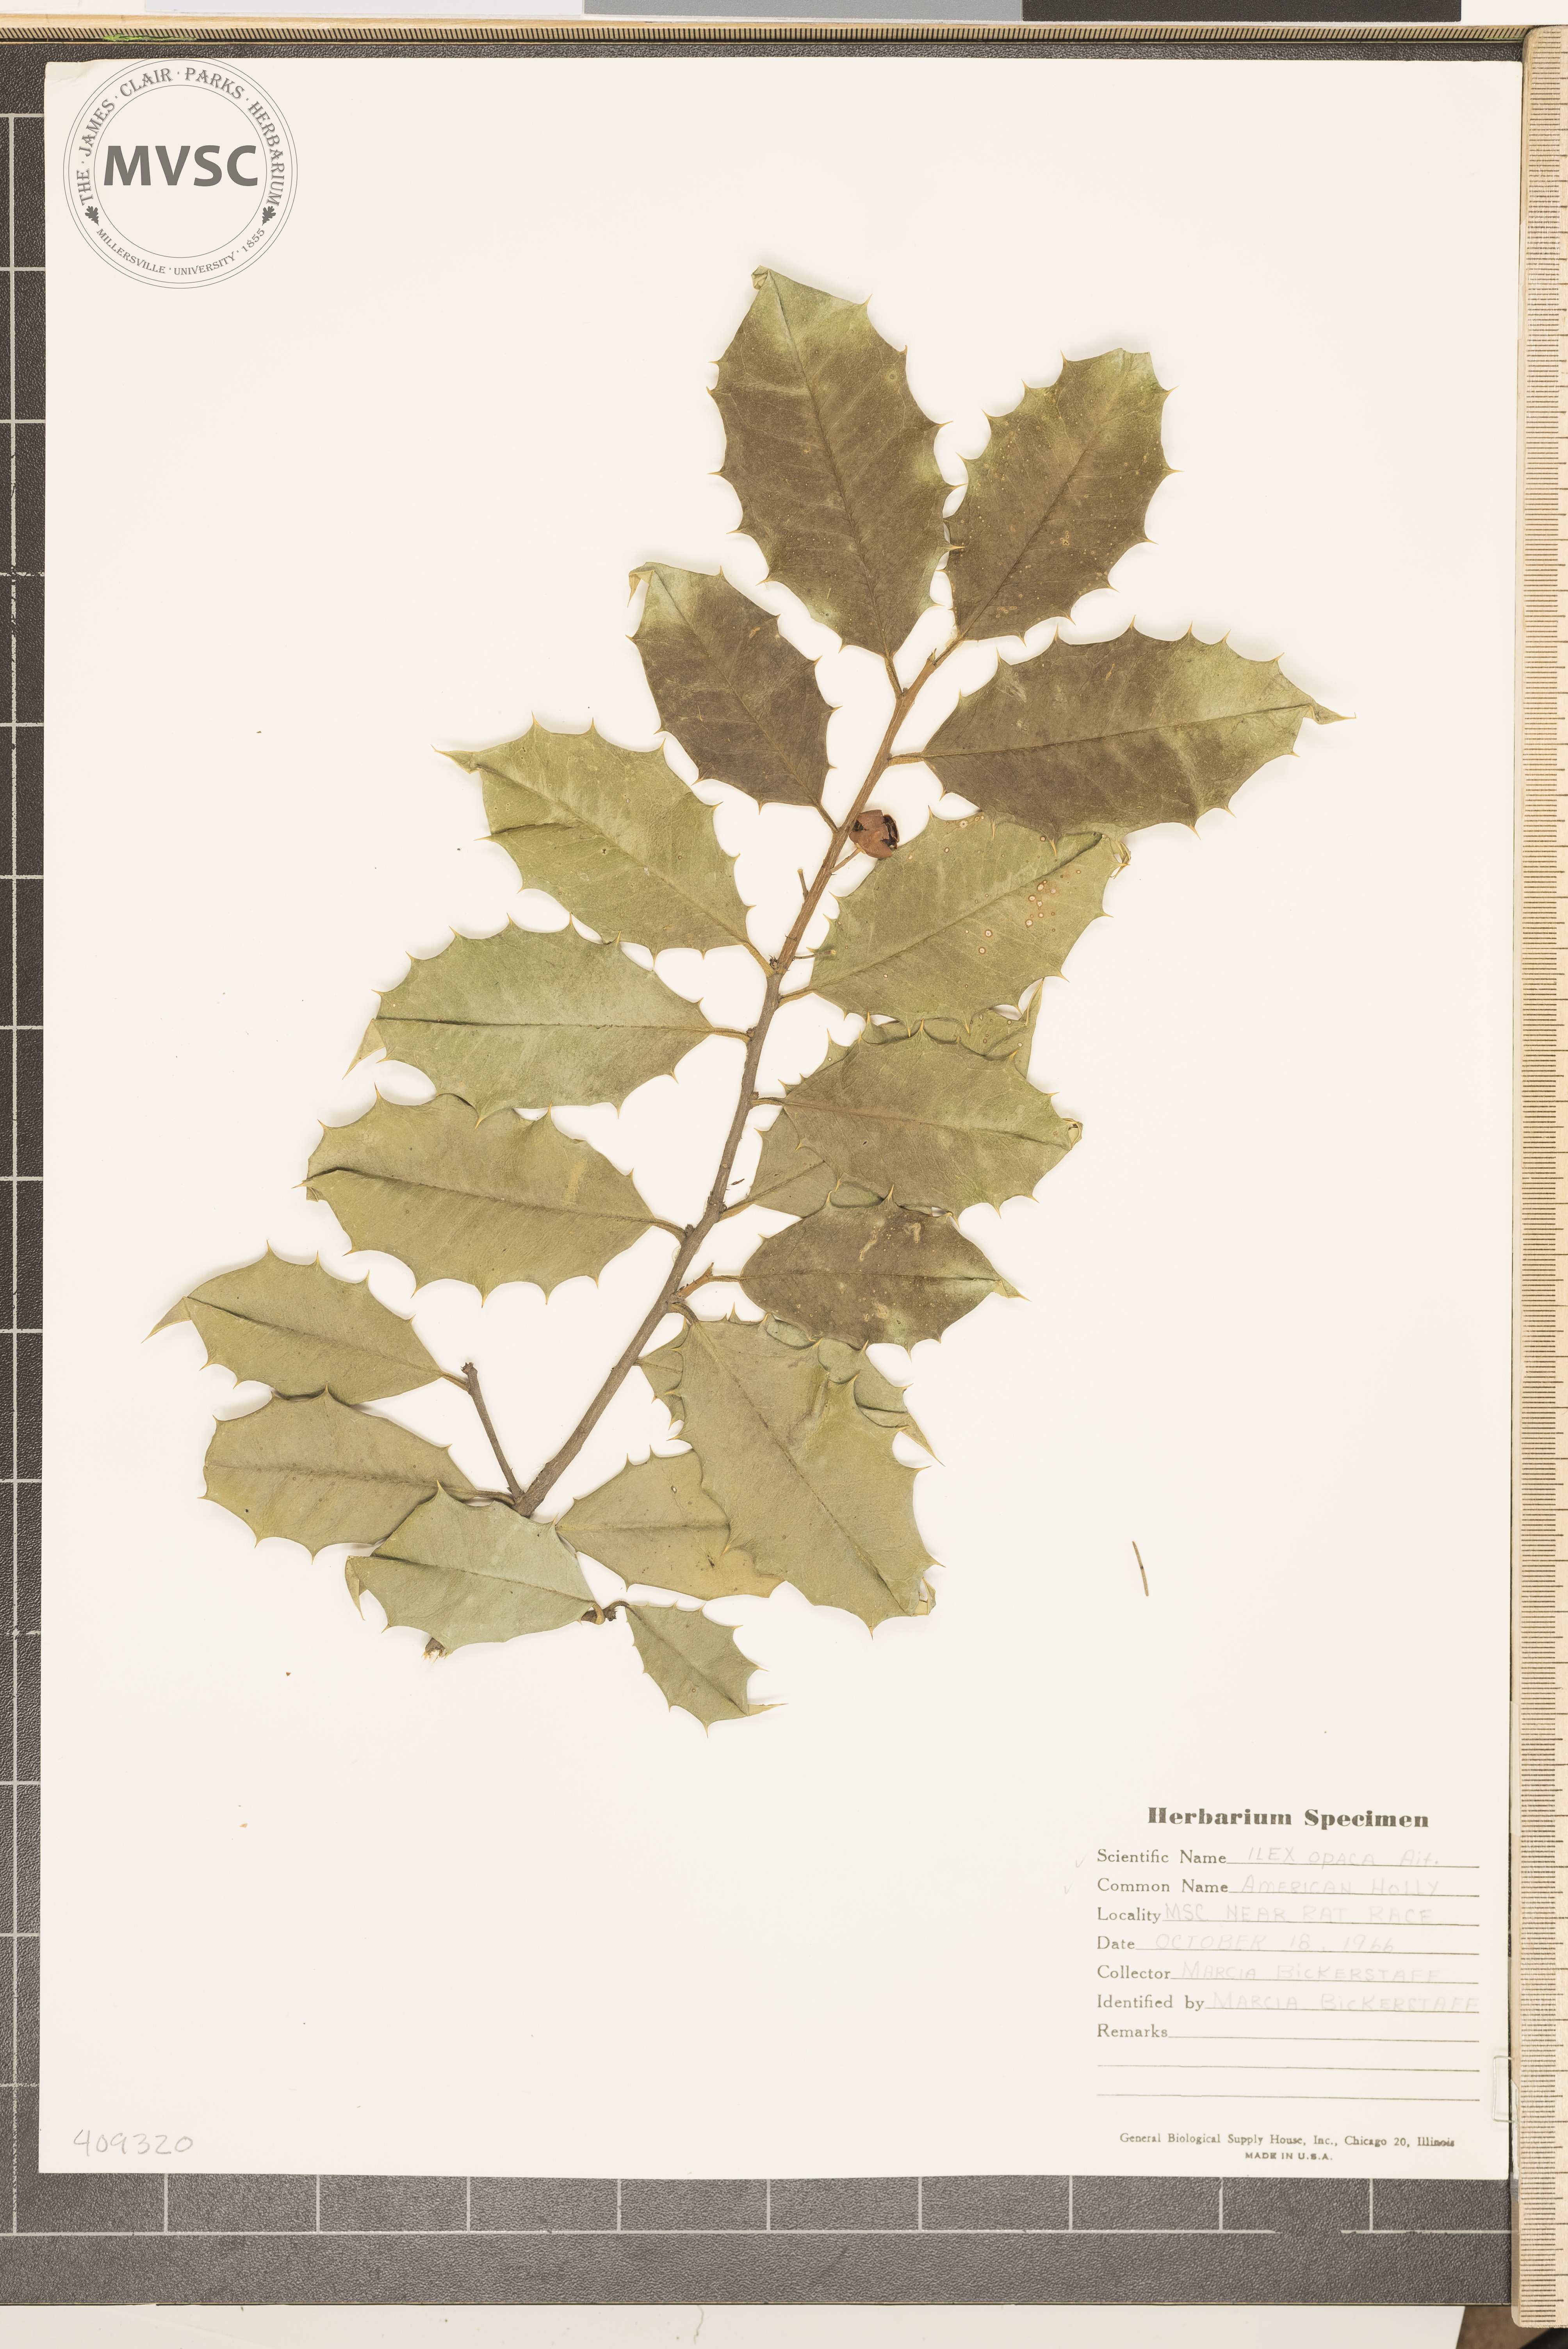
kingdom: Plantae
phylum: Tracheophyta
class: Magnoliopsida
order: Aquifoliales
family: Aquifoliaceae
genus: Ilex
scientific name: Ilex opaca
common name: American holly
